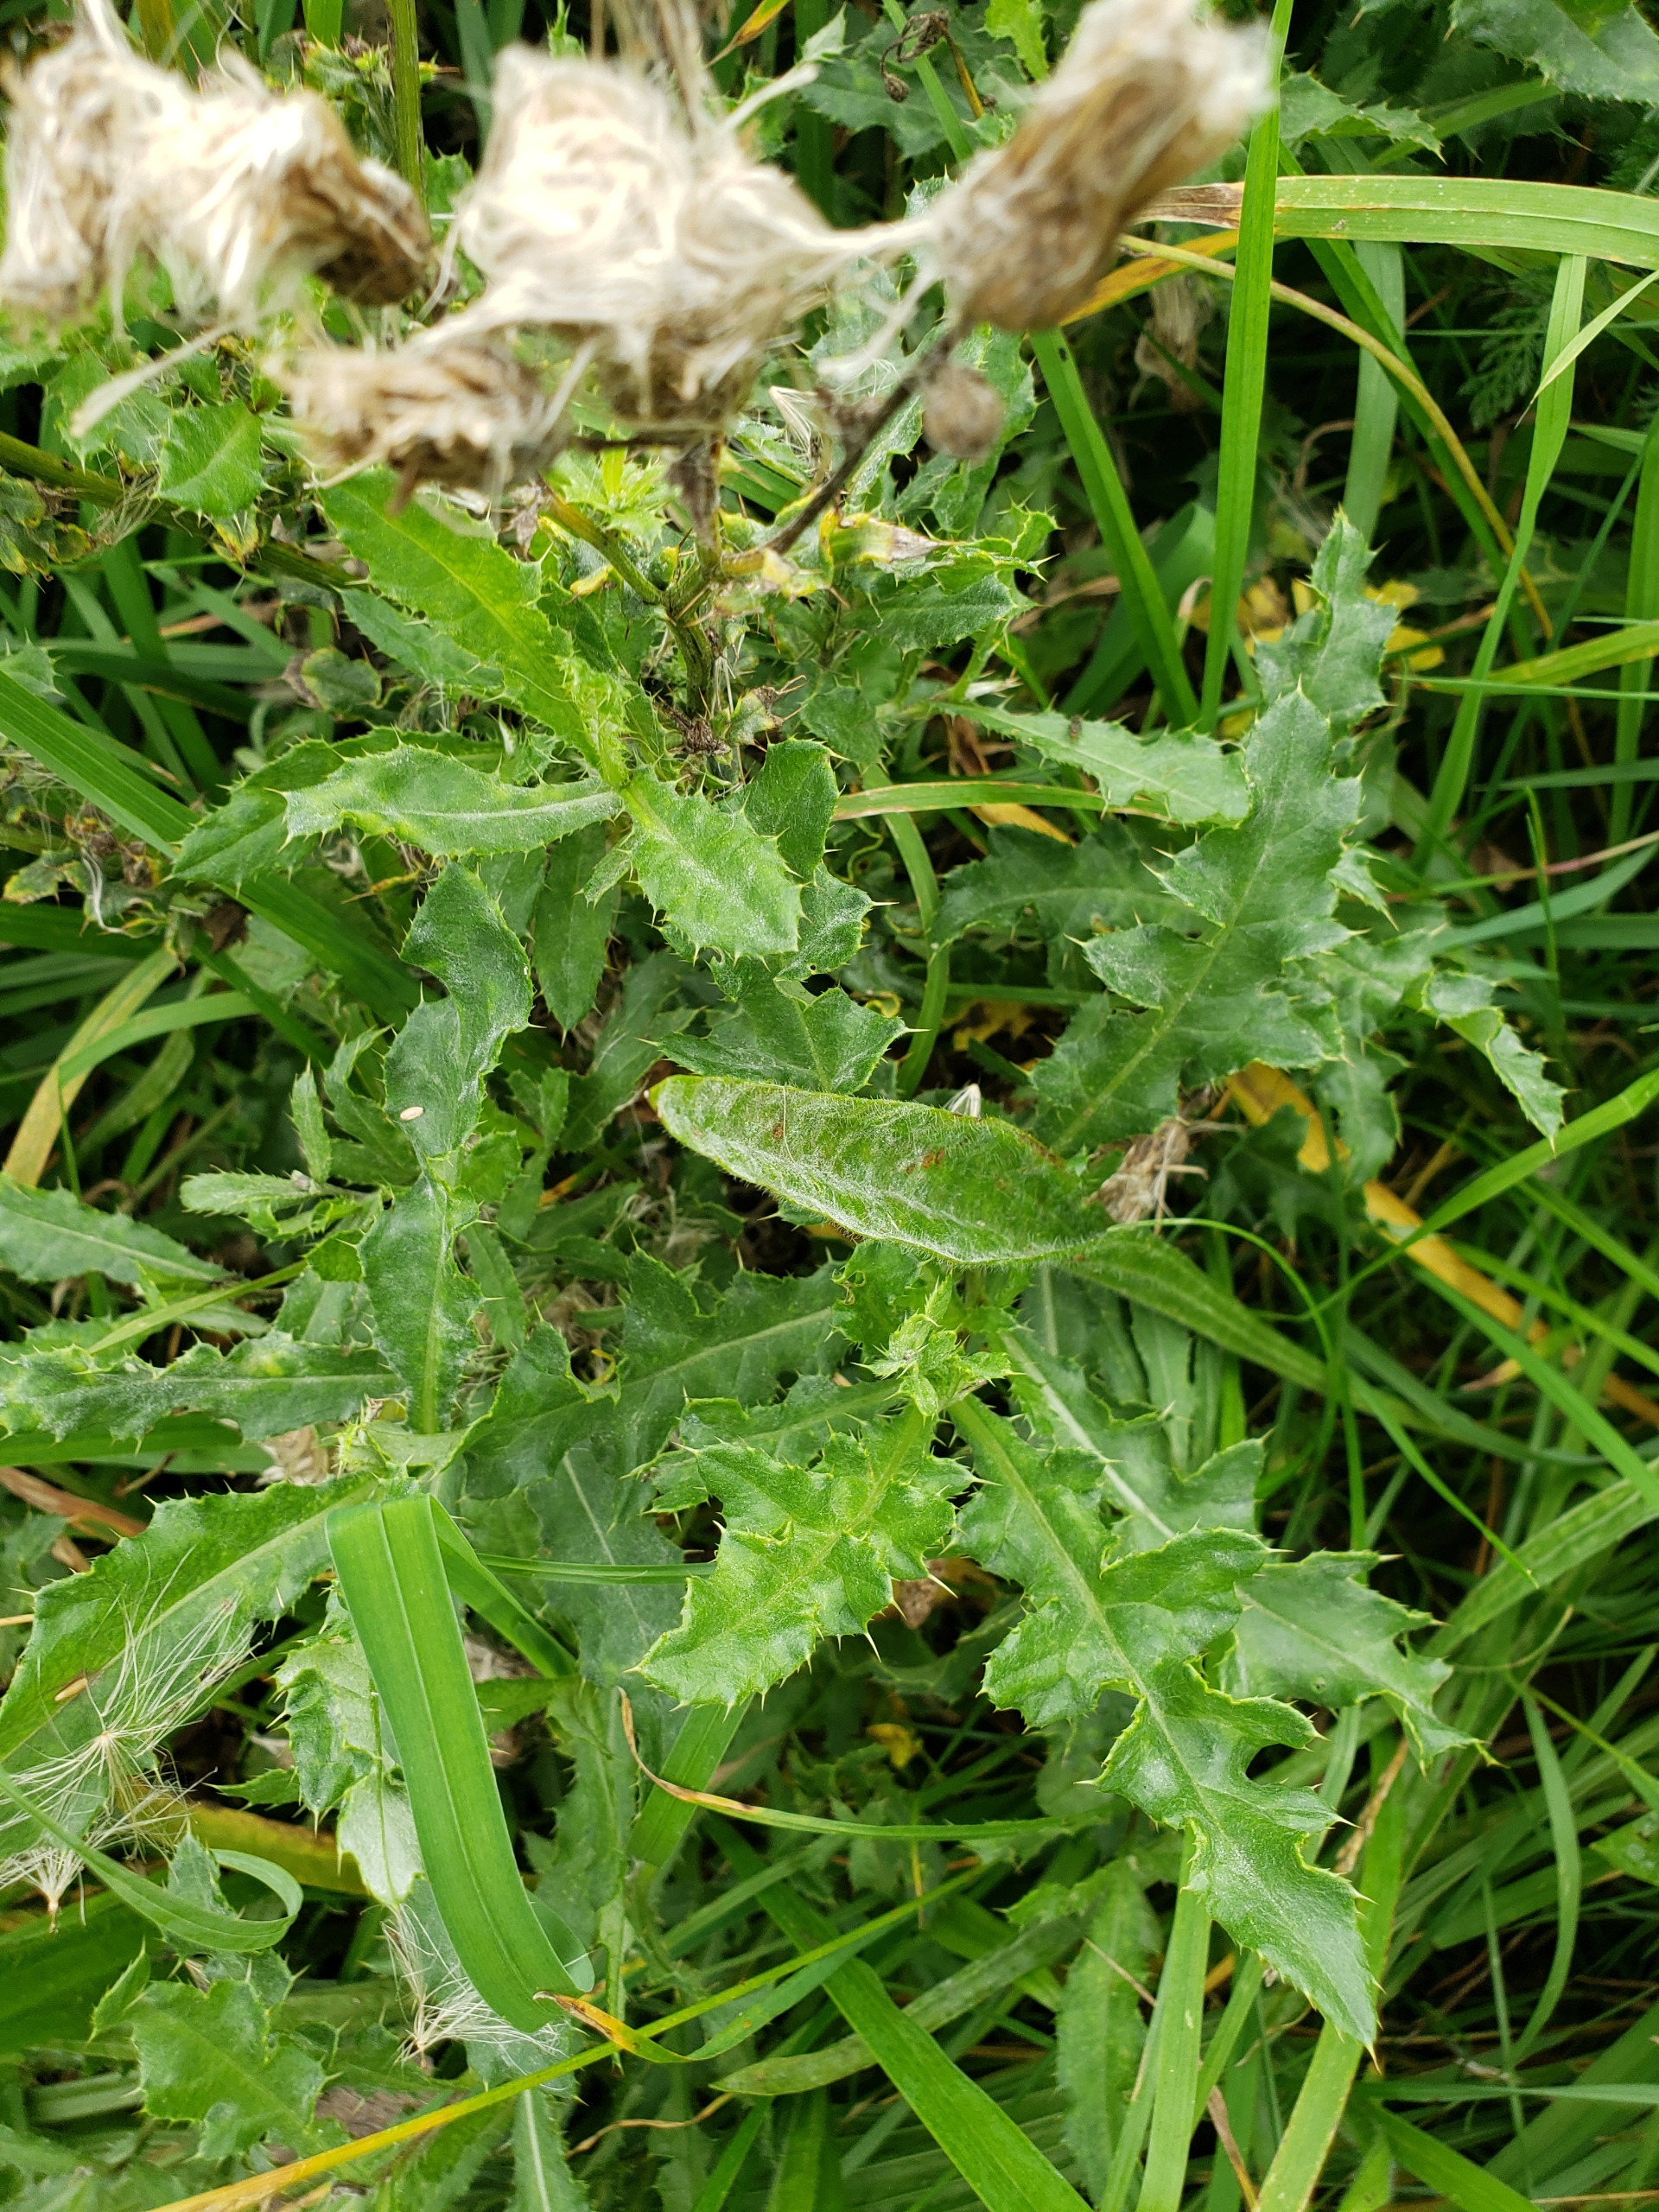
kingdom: Plantae
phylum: Tracheophyta
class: Magnoliopsida
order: Asterales
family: Asteraceae
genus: Cirsium
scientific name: Cirsium arvense
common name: Ager-tidsel
